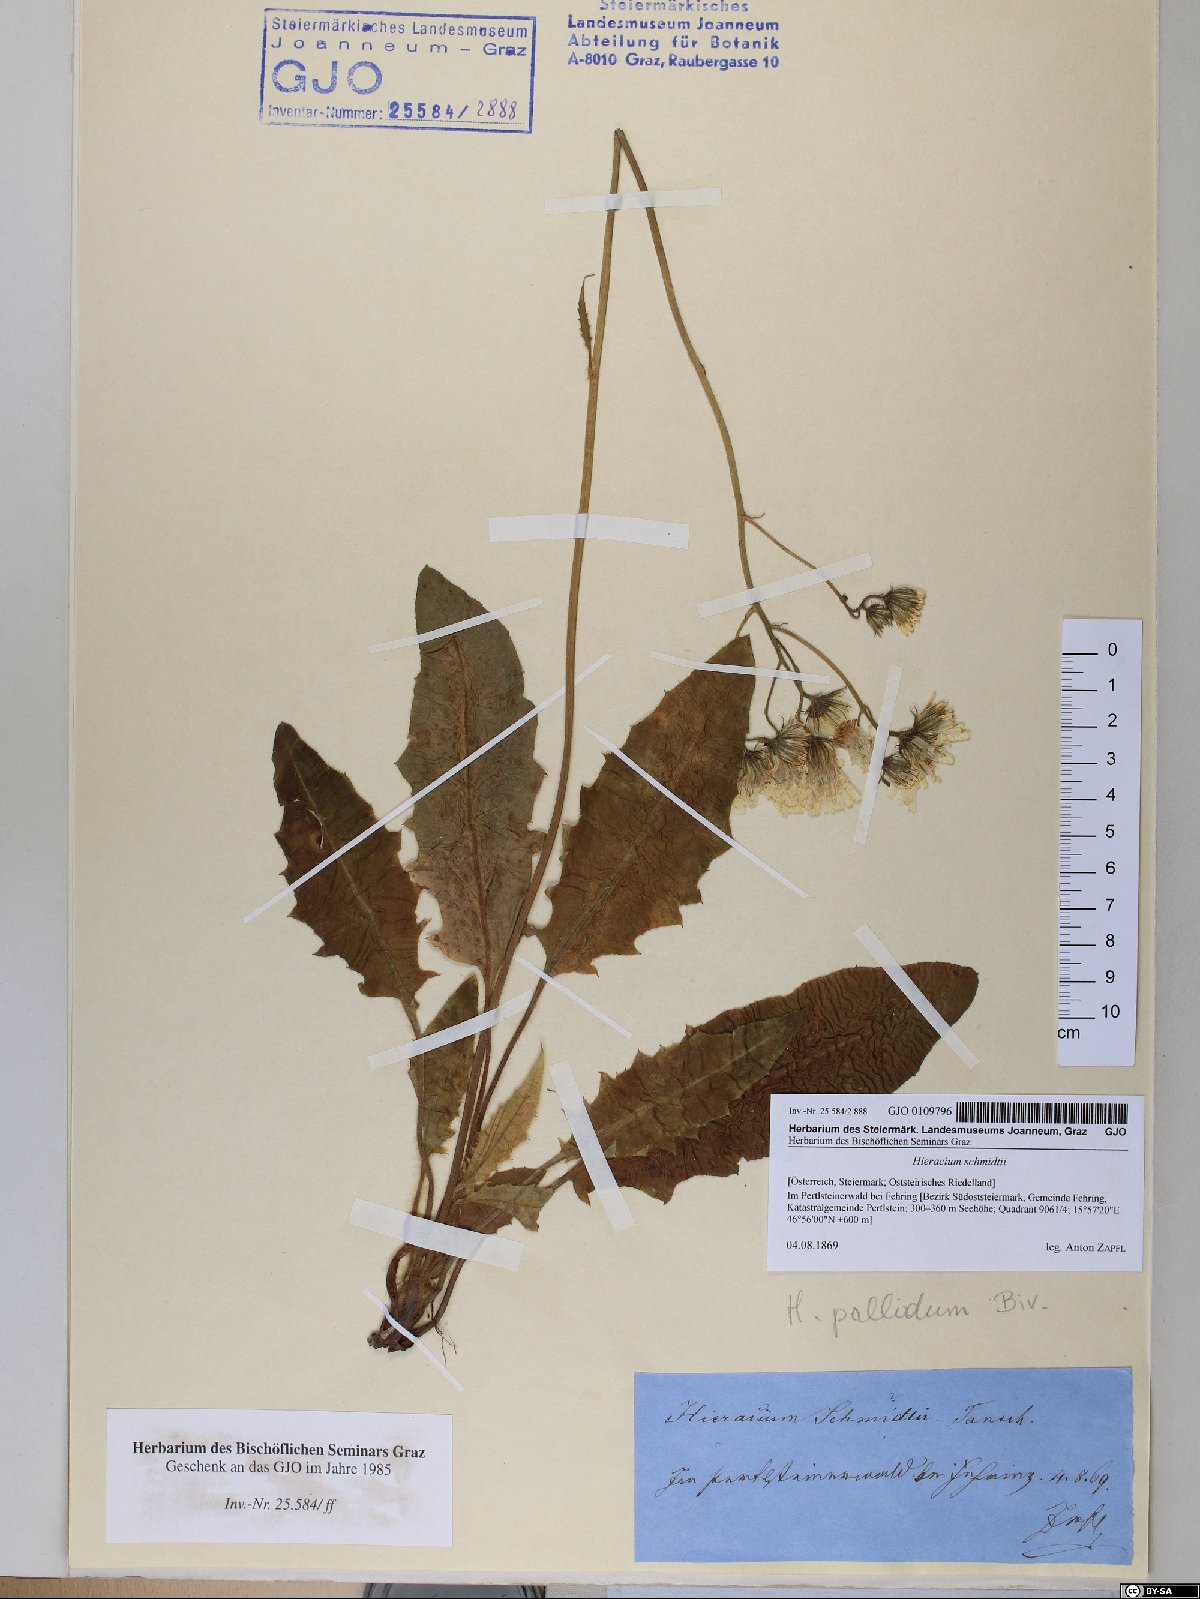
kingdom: Plantae
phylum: Tracheophyta
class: Magnoliopsida
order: Asterales
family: Asteraceae
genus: Hieracium
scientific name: Hieracium schmidtii
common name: Schmidt's hawkweed
